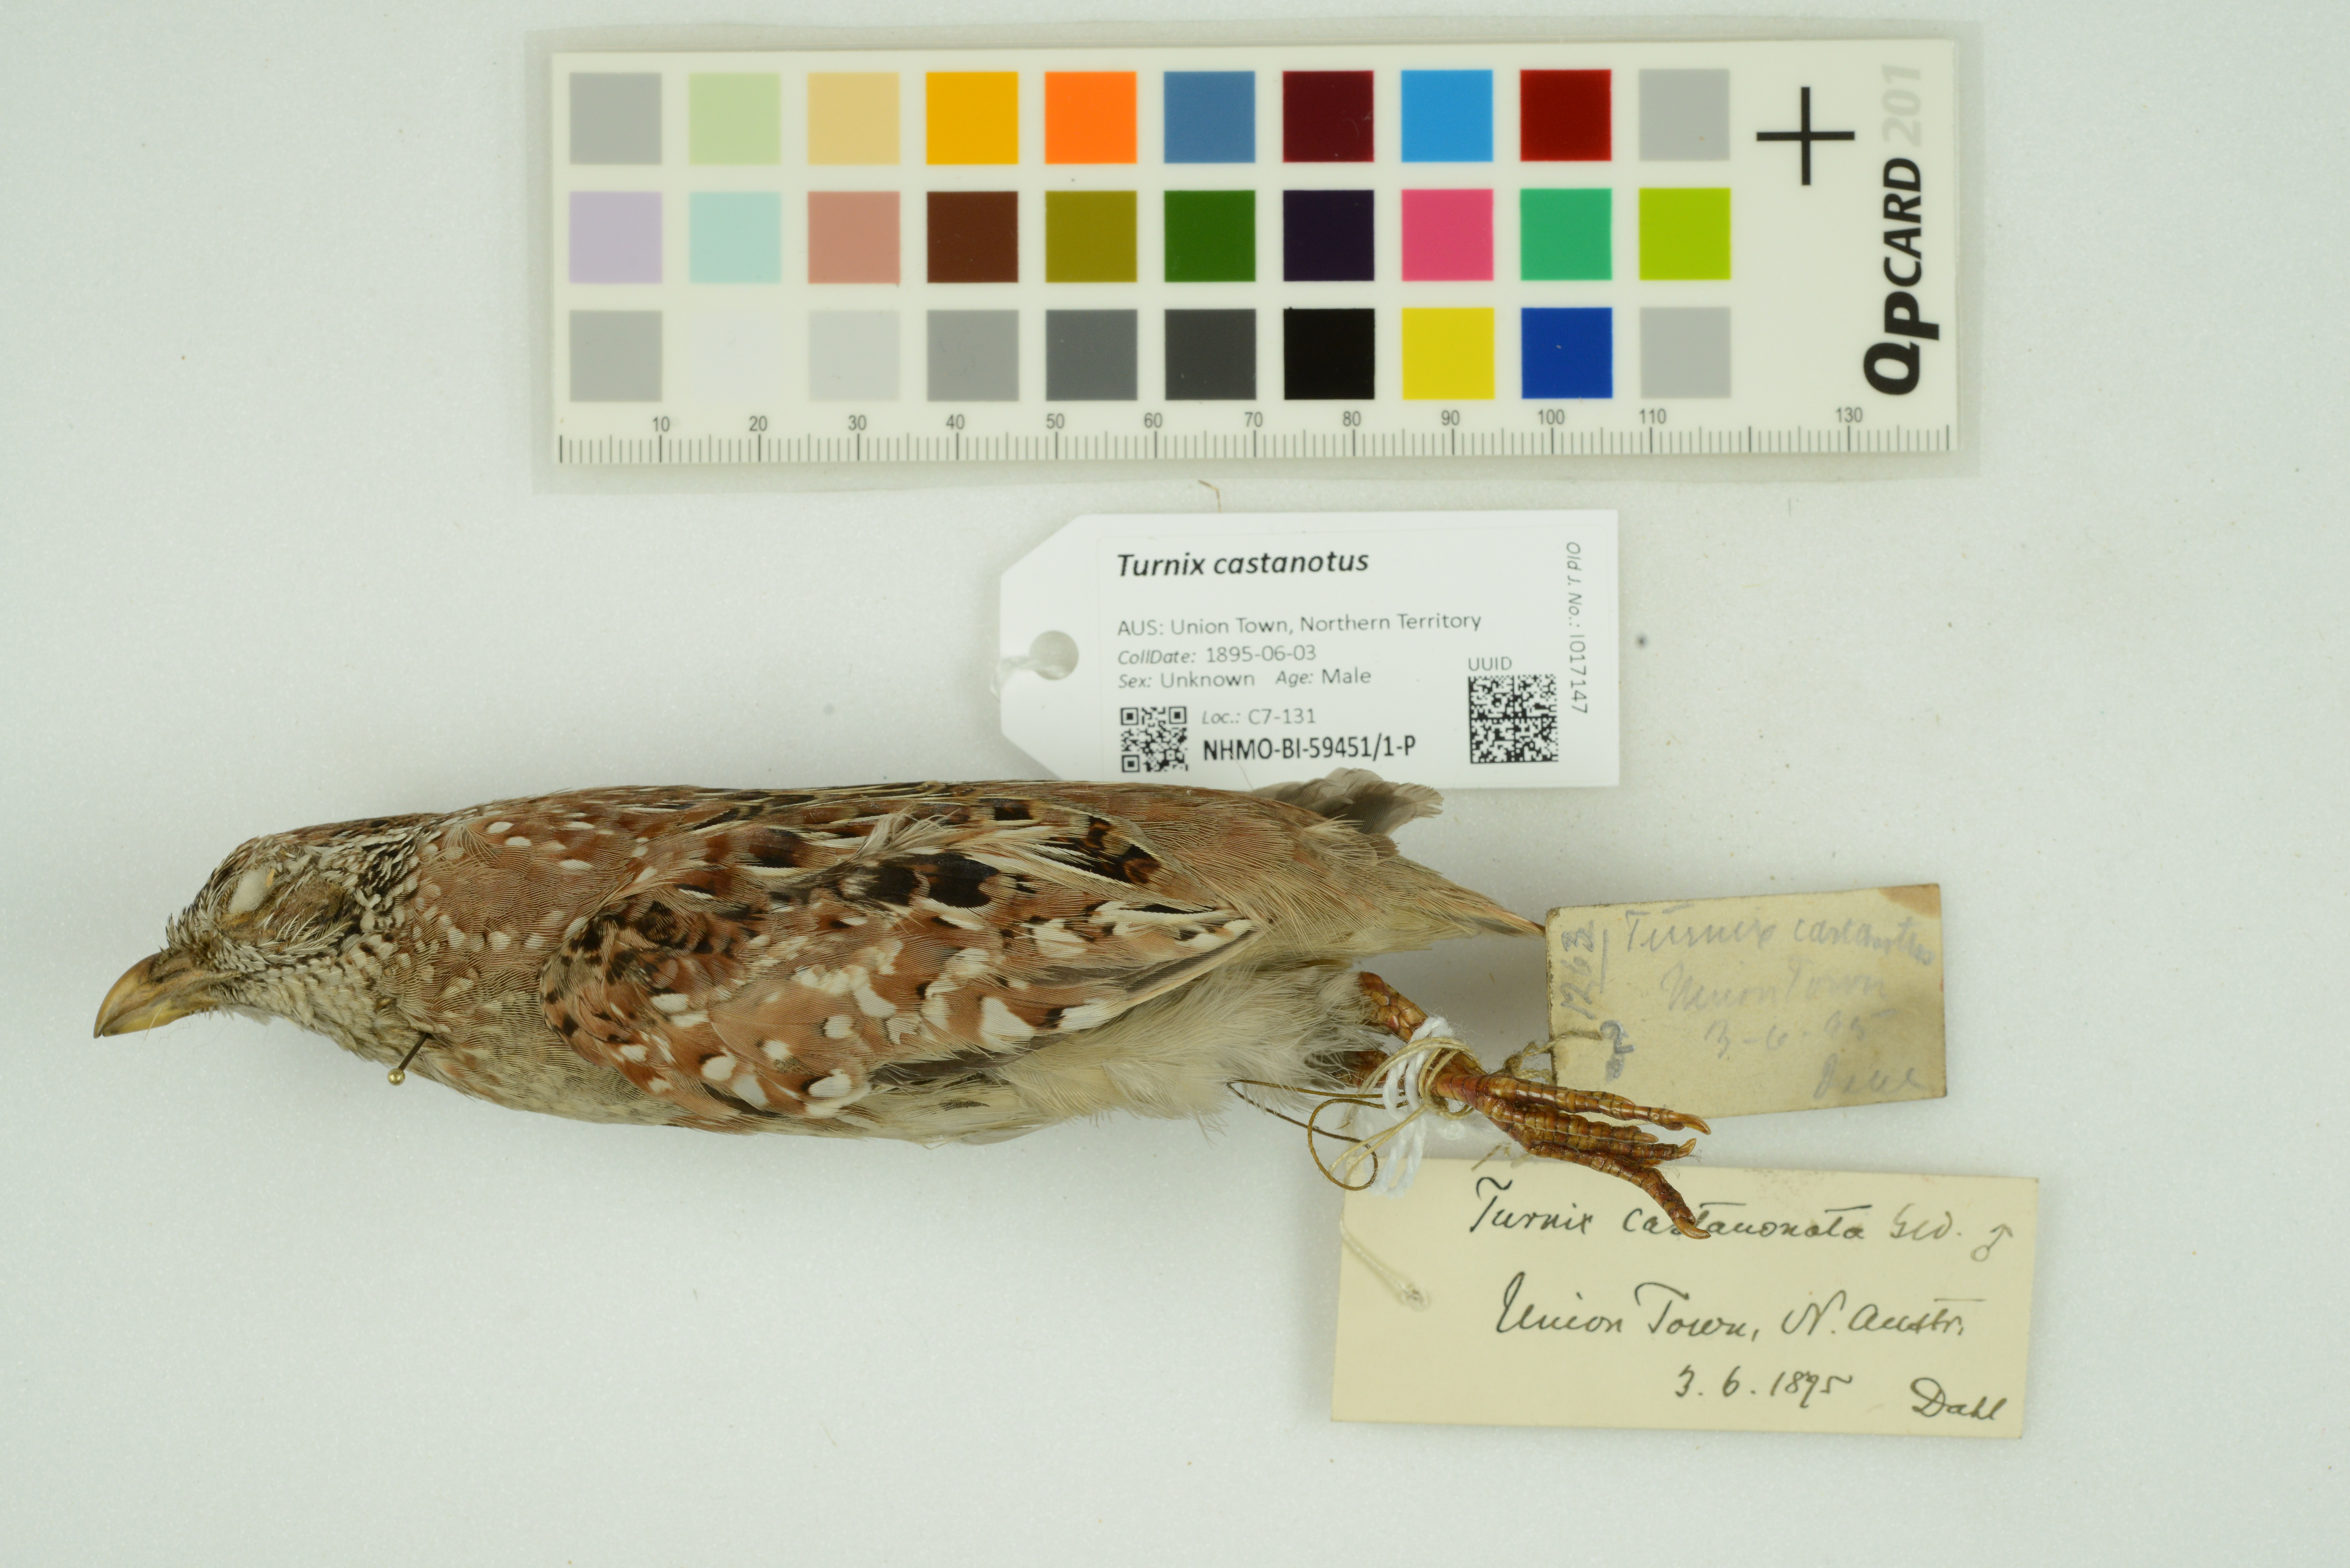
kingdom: Animalia
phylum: Chordata
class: Aves
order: Charadriiformes
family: Turnicidae
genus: Turnix
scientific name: Turnix castanotus
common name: Chestnut-backed buttonquail
